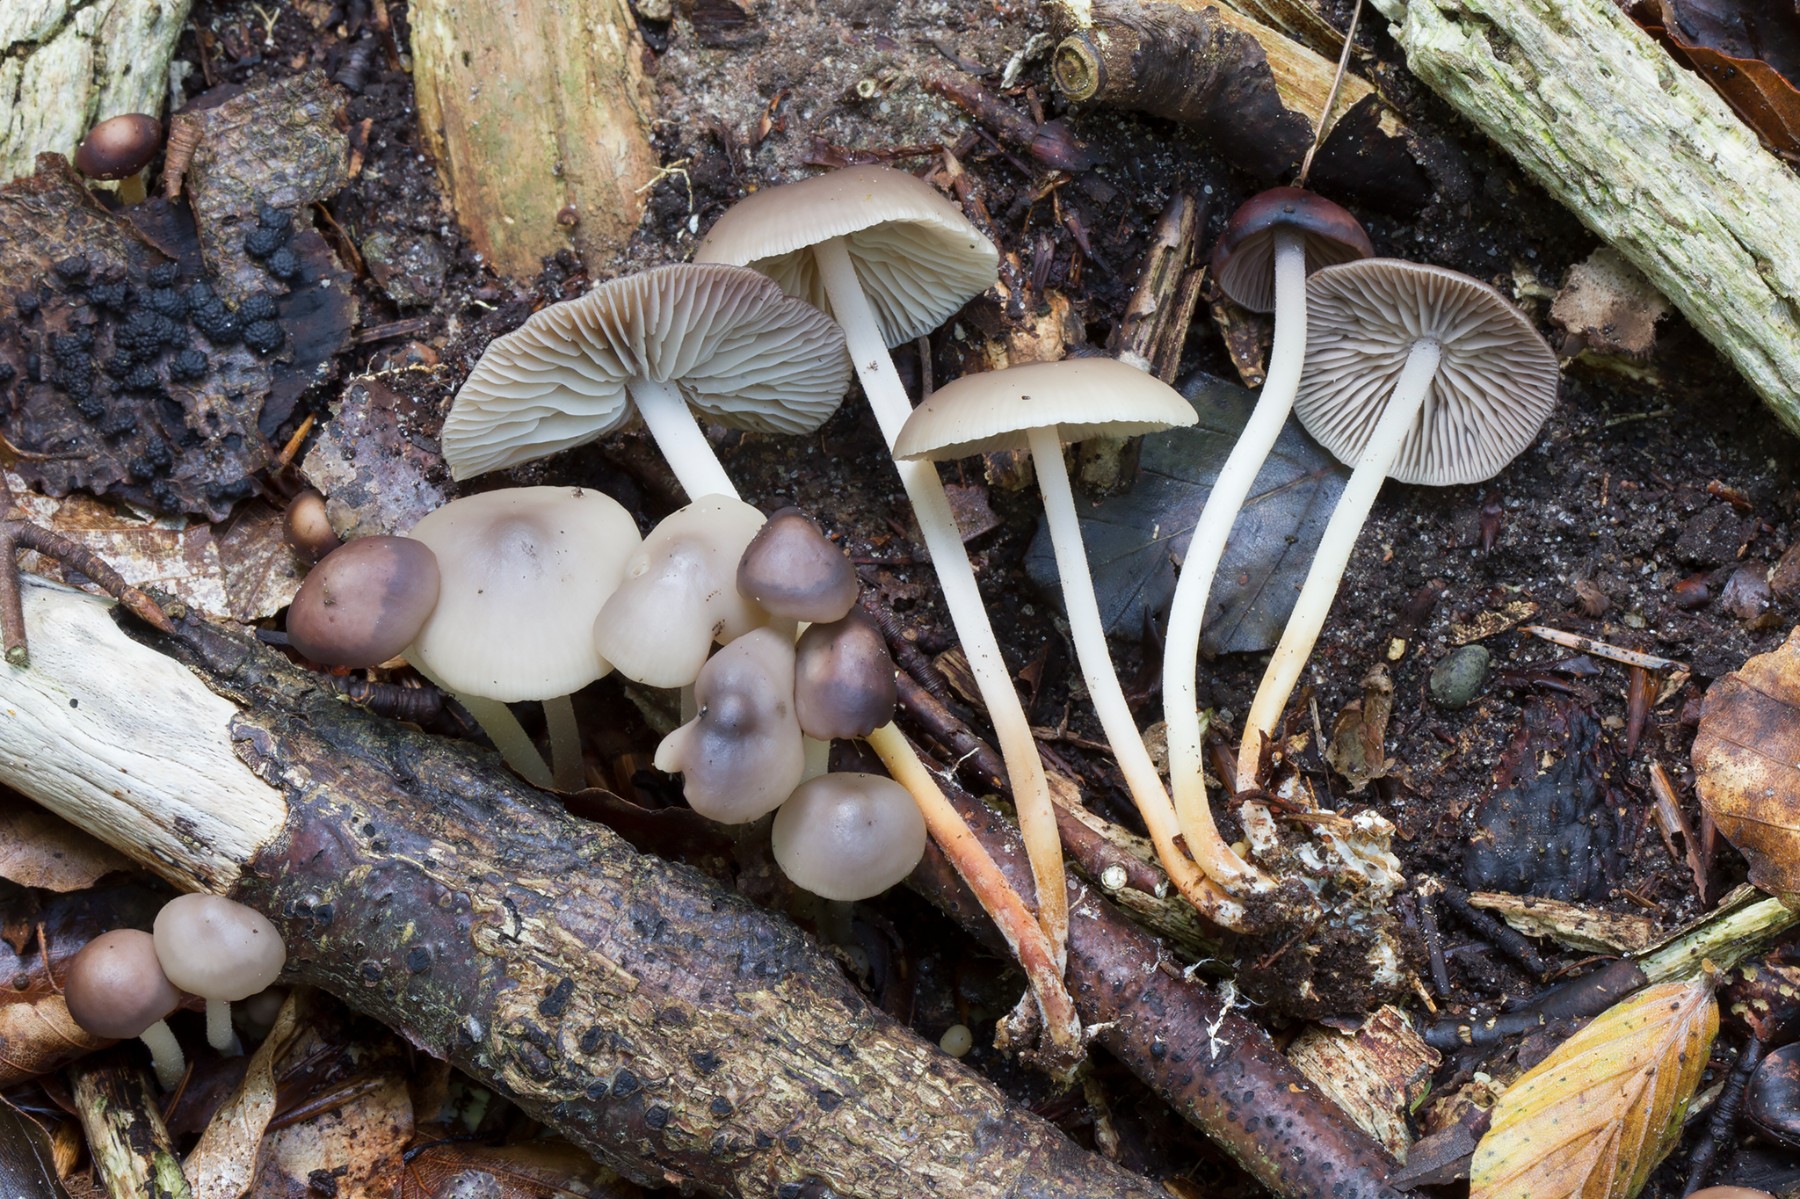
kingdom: Fungi
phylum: Basidiomycota
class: Agaricomycetes
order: Agaricales
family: Marasmiaceae
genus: Marasmius
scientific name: Marasmius wynneae
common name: hvælvet bruskhat
